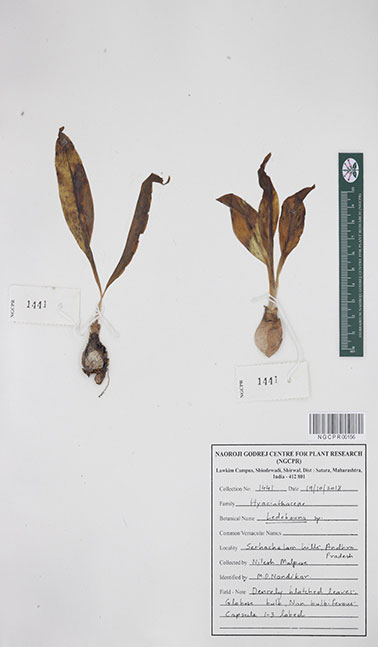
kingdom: Plantae
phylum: Tracheophyta
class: Liliopsida
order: Asparagales
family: Asparagaceae
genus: Ledebouria
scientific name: Ledebouria
